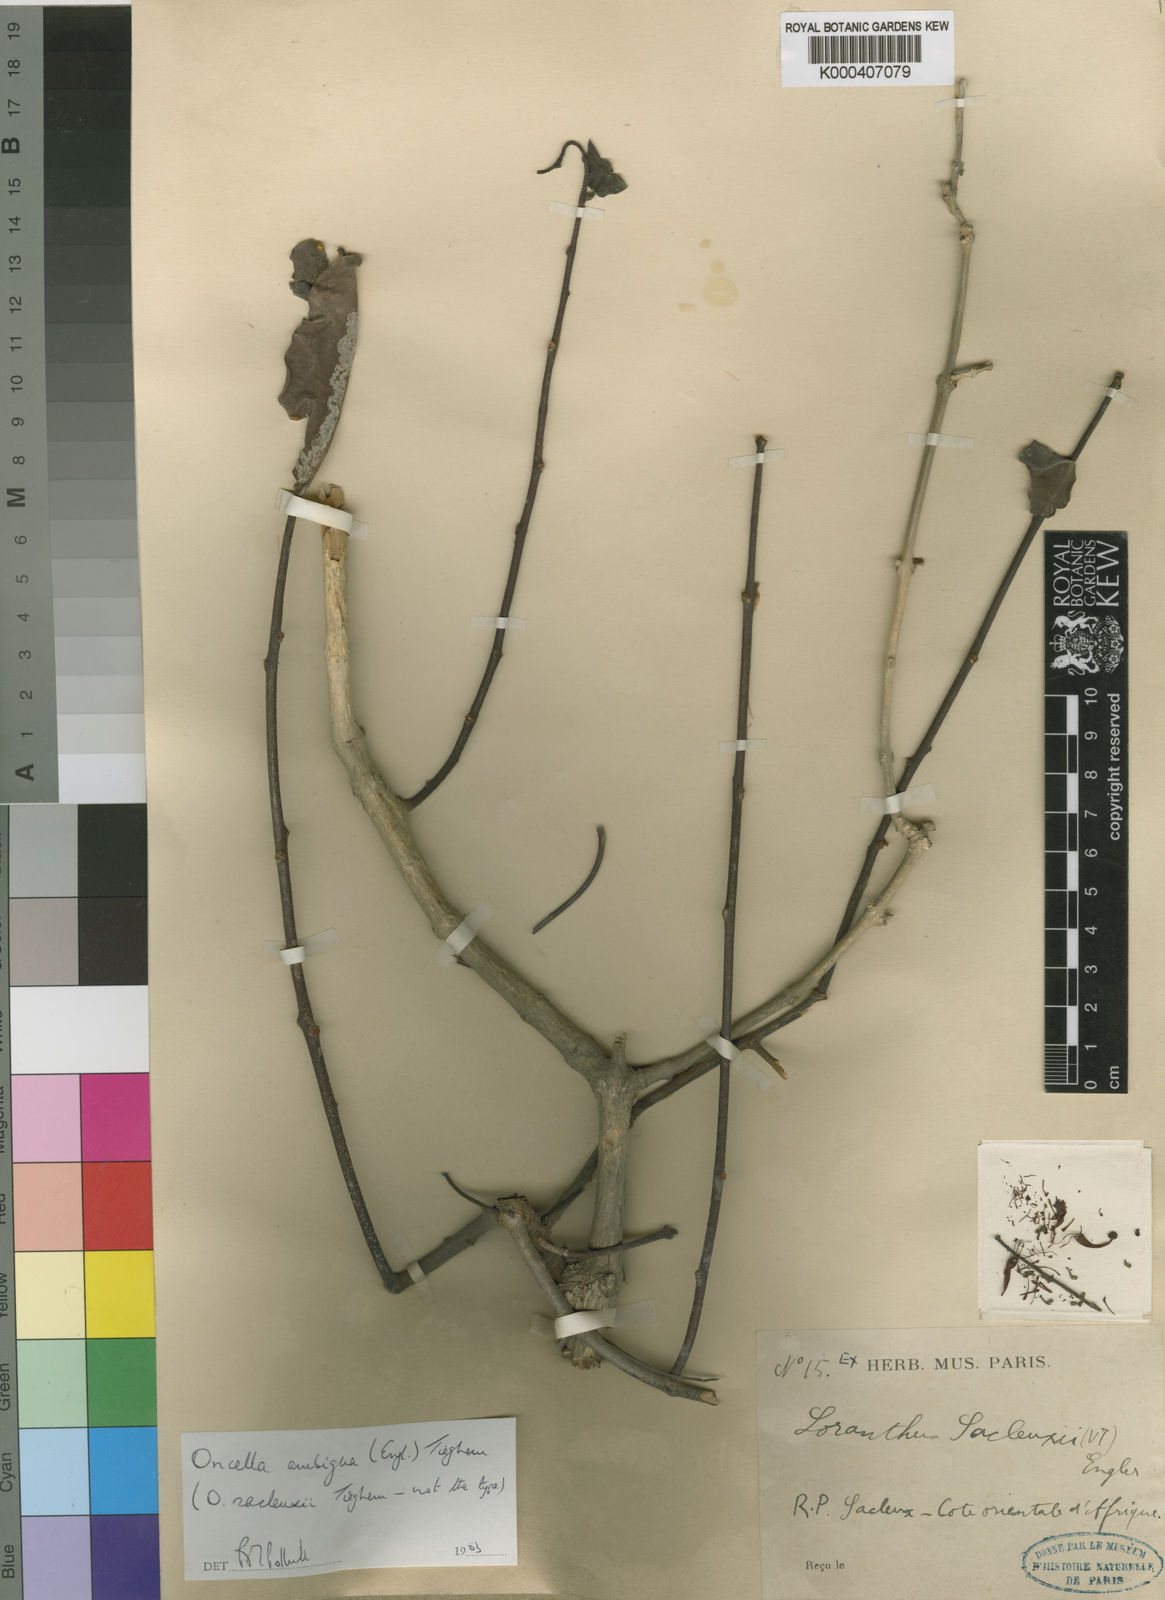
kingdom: Plantae
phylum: Tracheophyta
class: Magnoliopsida
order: Santalales
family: Loranthaceae
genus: Oncella
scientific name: Oncella ambigua
